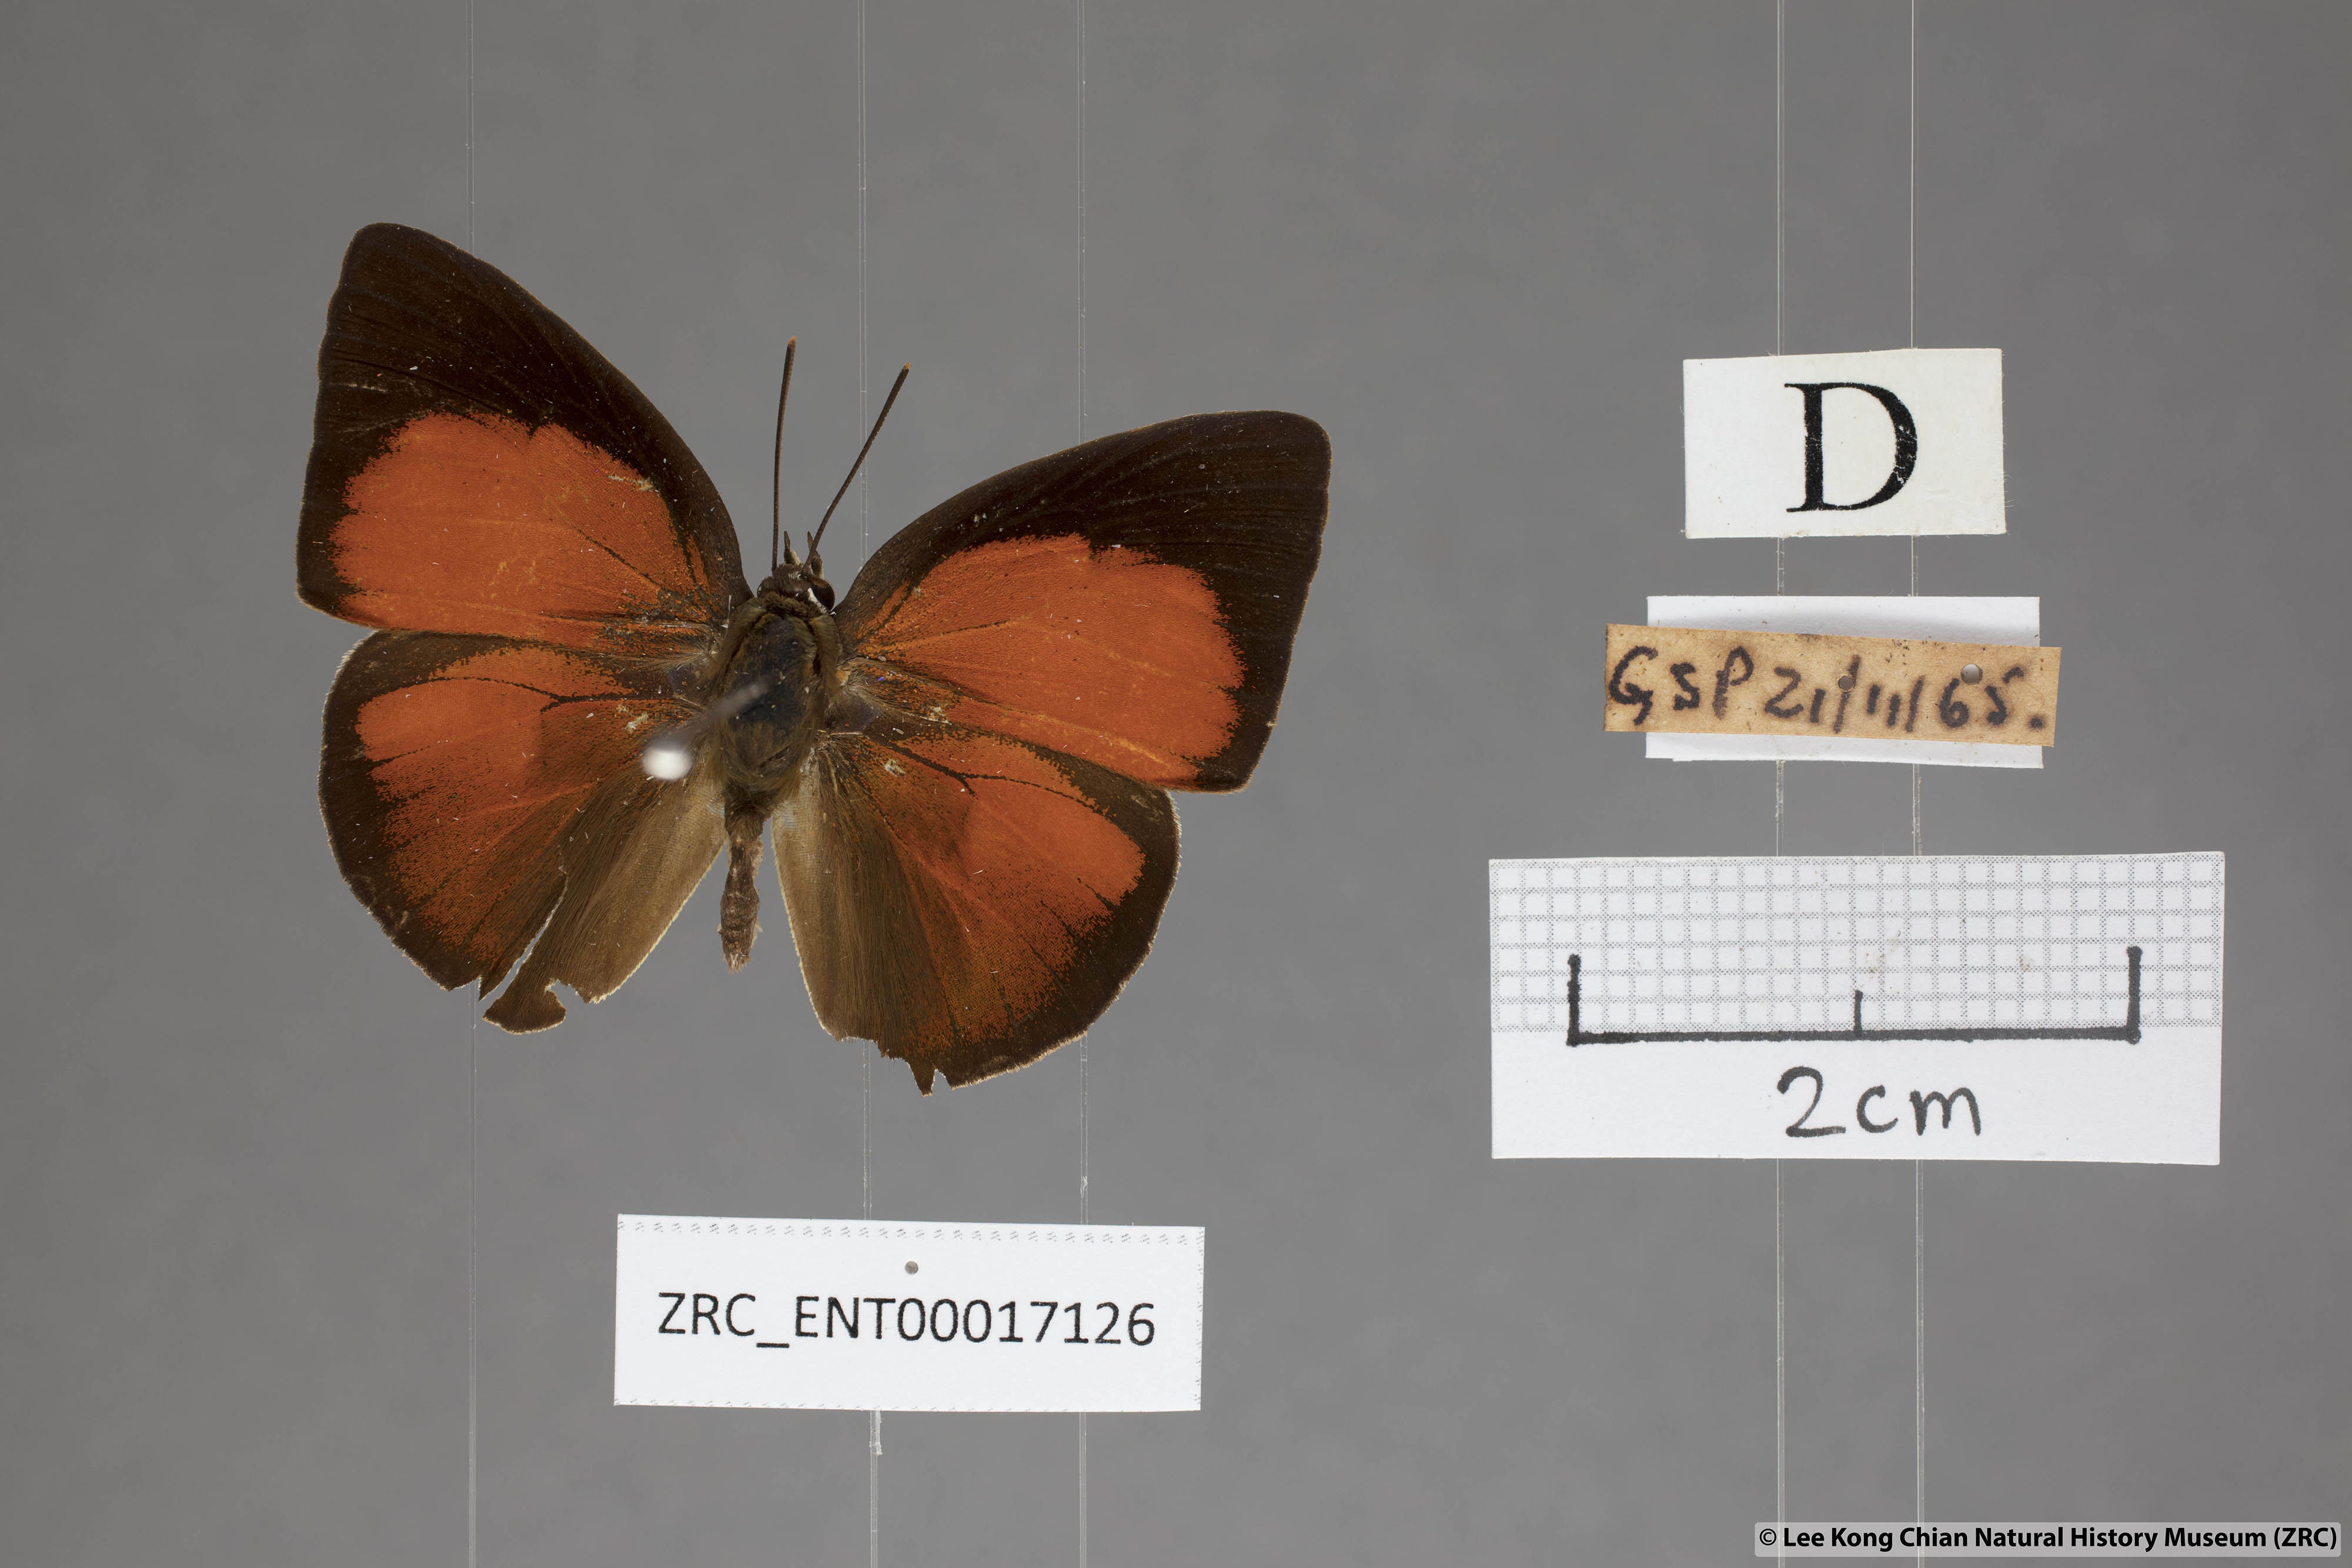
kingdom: Animalia
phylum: Arthropoda
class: Insecta
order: Lepidoptera
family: Lycaenidae
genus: Curetis
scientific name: Curetis freda
